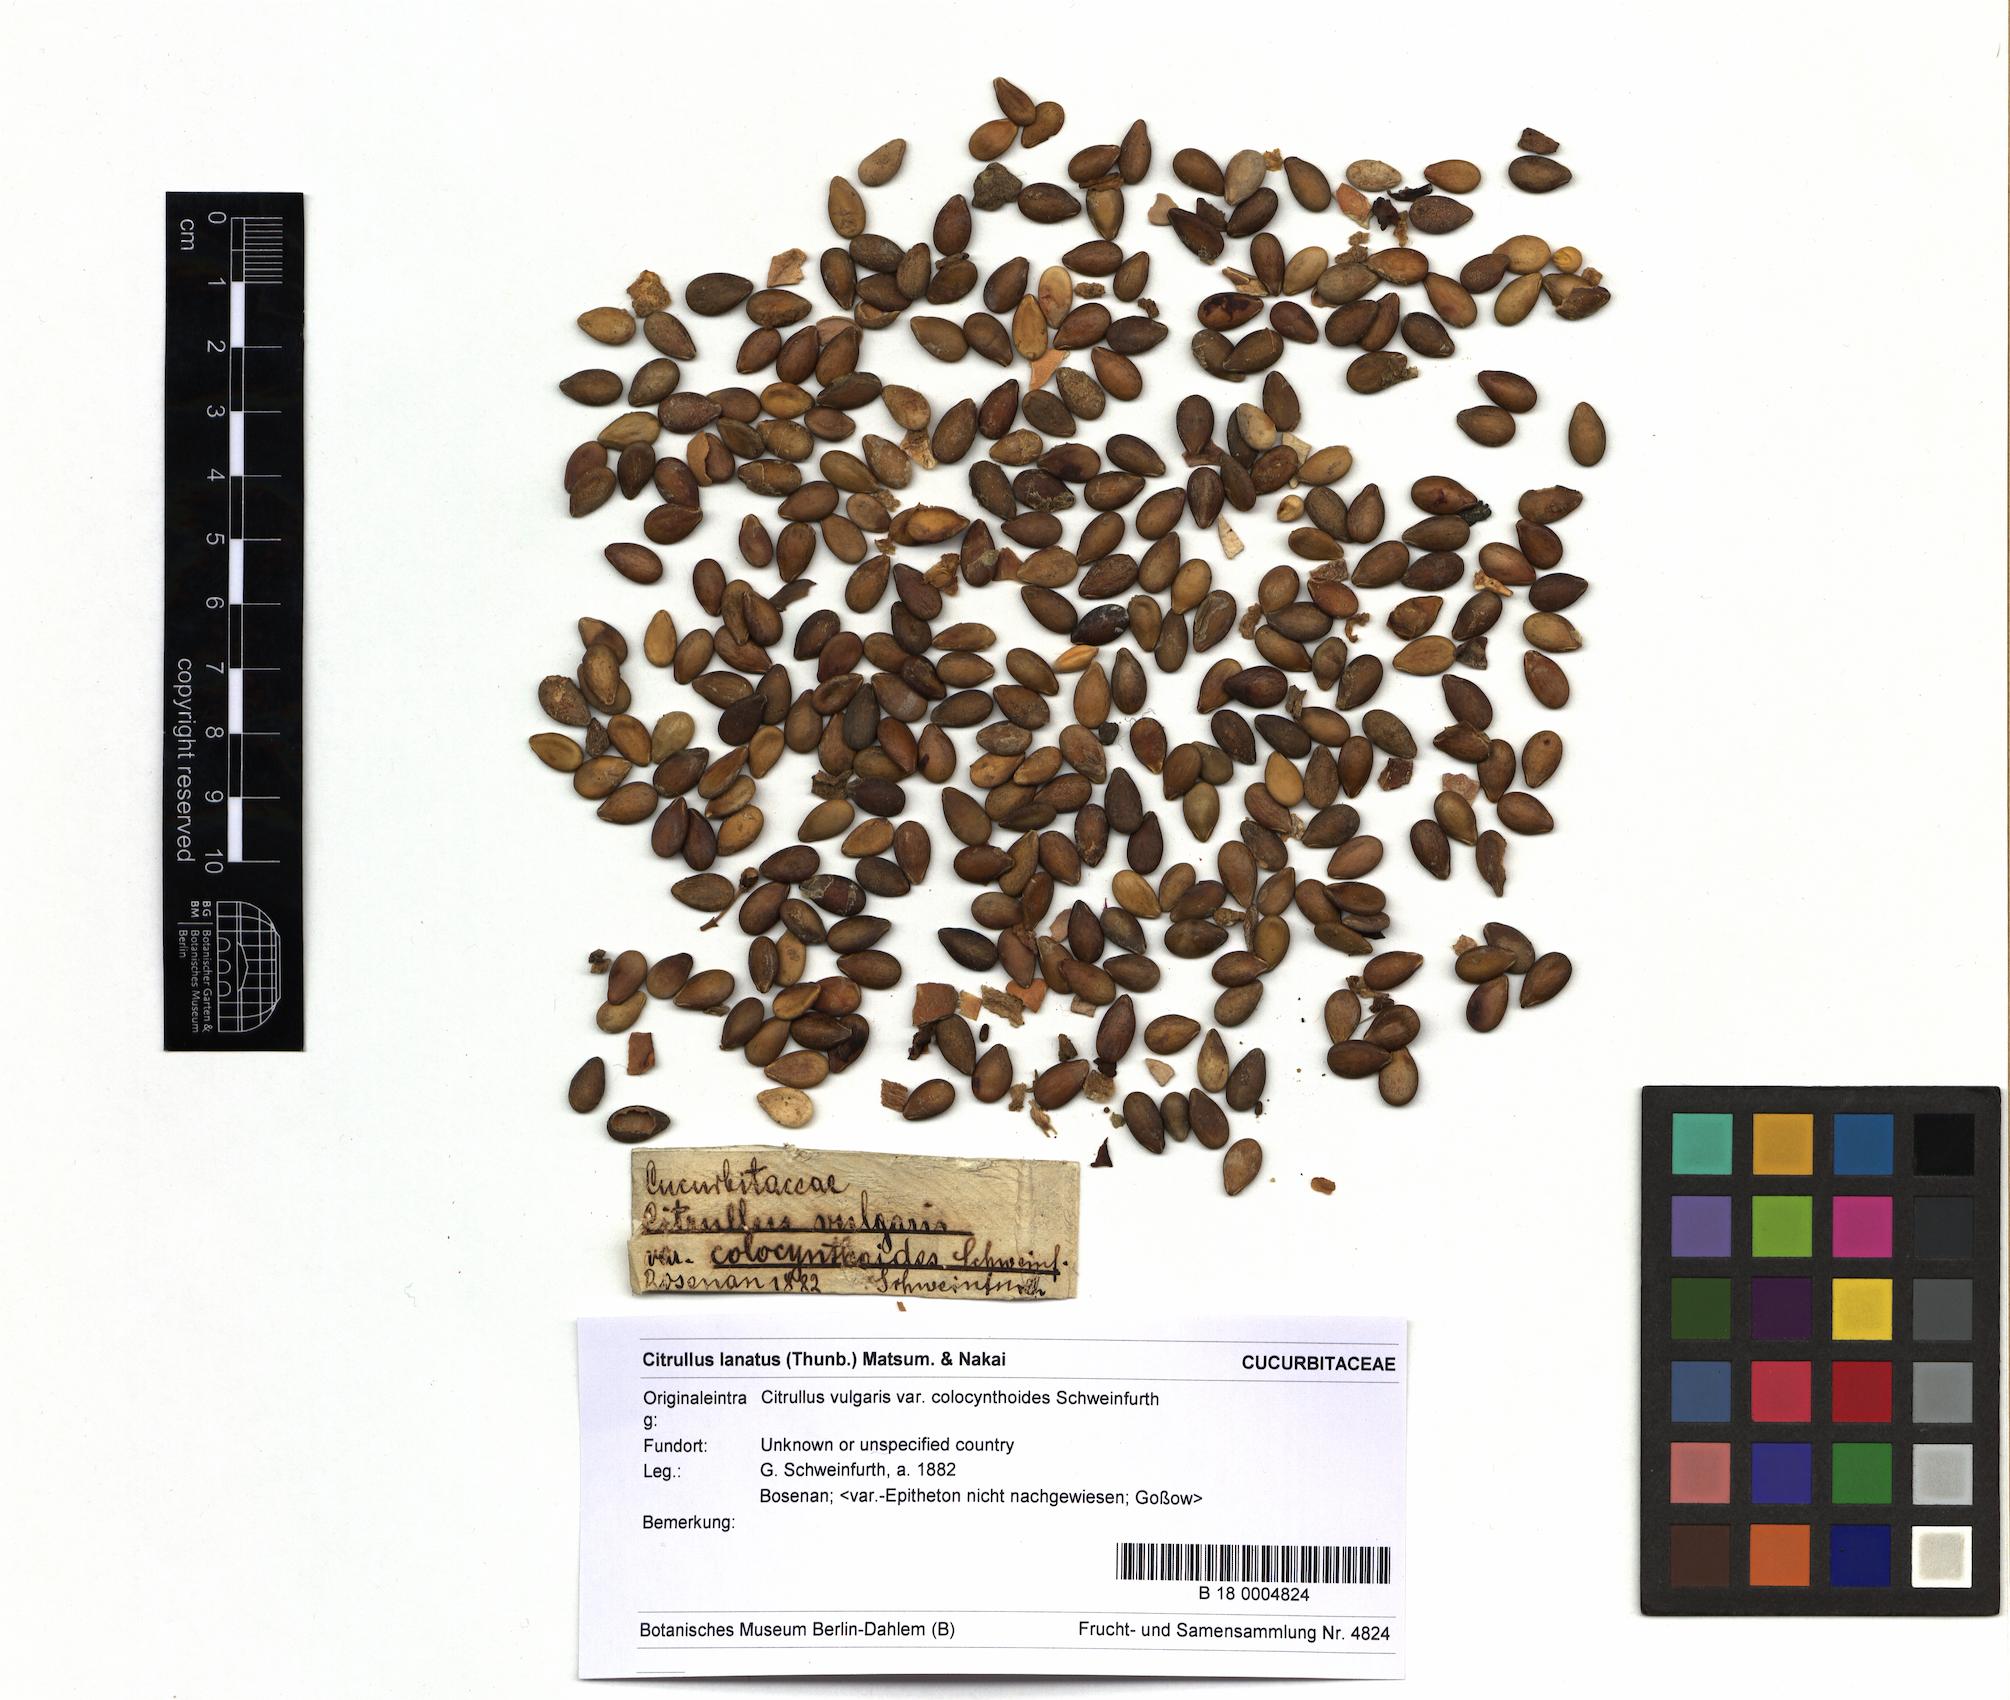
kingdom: Plantae
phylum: Tracheophyta
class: Magnoliopsida
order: Cucurbitales
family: Cucurbitaceae
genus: Citrullus
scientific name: Citrullus colocynthis
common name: Colocynth
